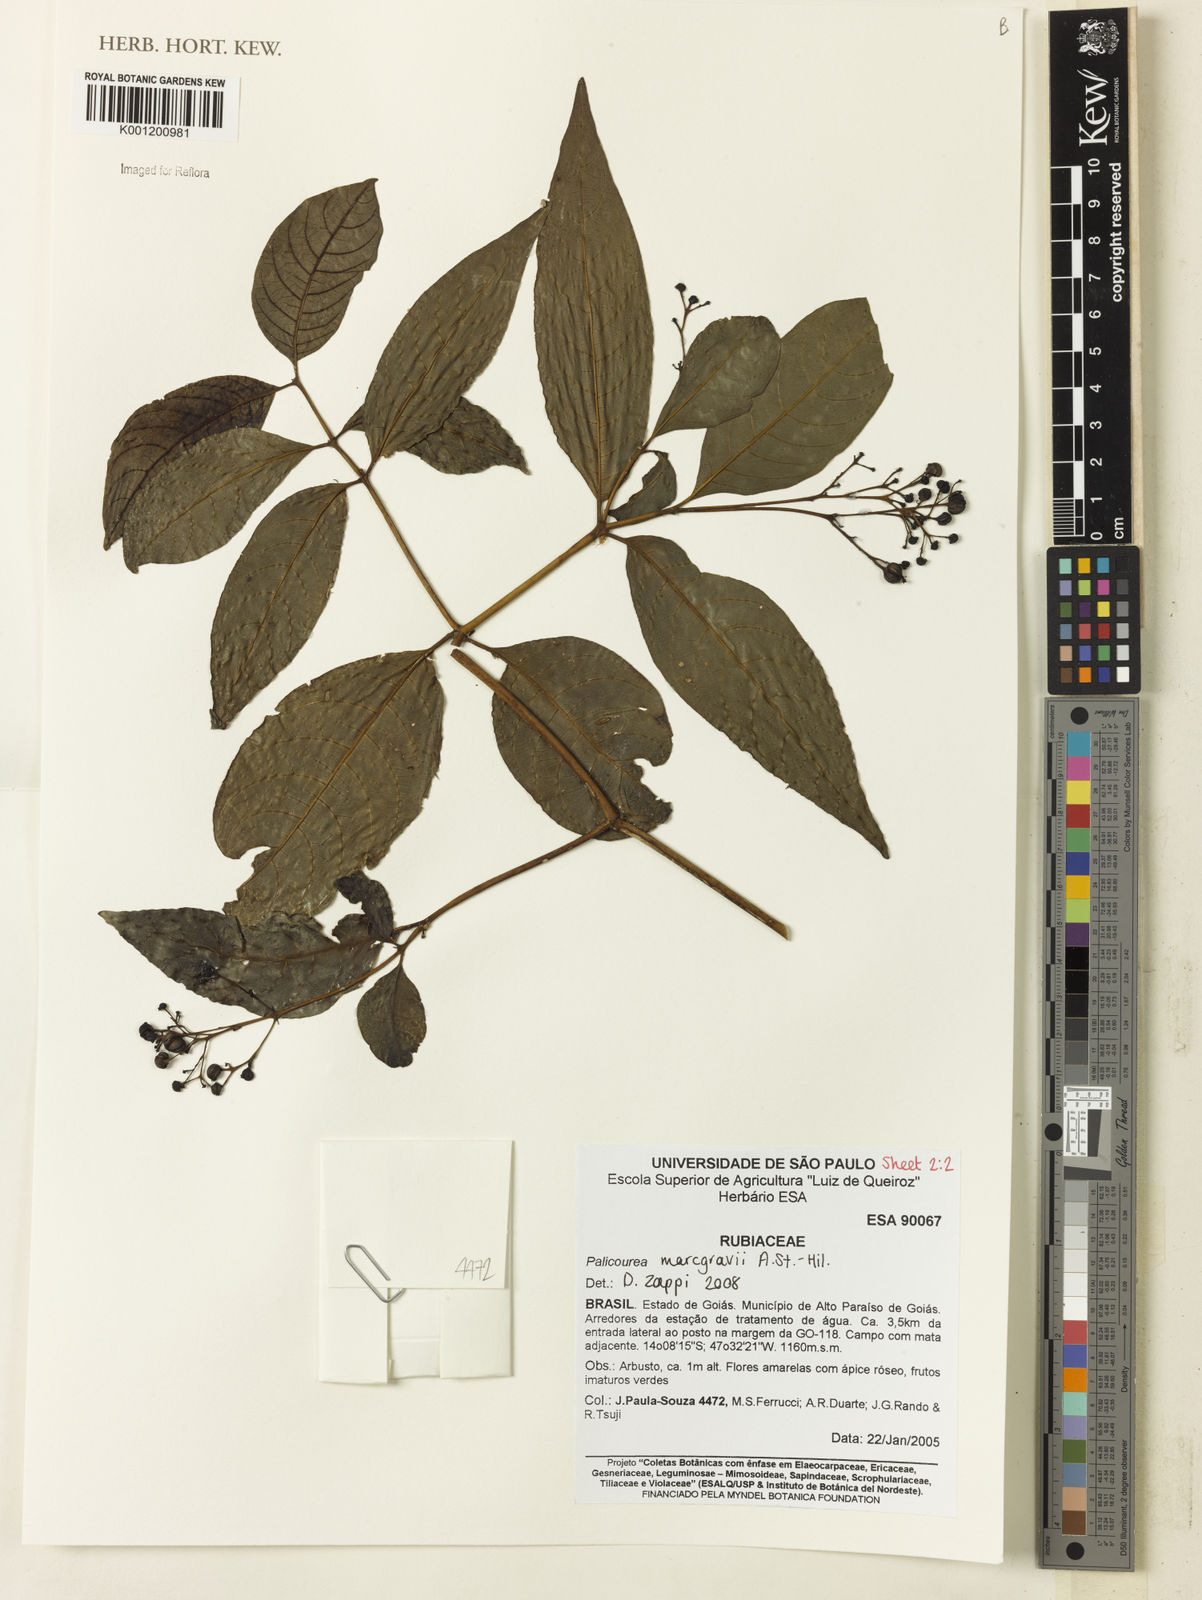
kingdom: Plantae
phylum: Tracheophyta
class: Magnoliopsida
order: Gentianales
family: Rubiaceae
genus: Palicourea
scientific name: Palicourea marcgravii
